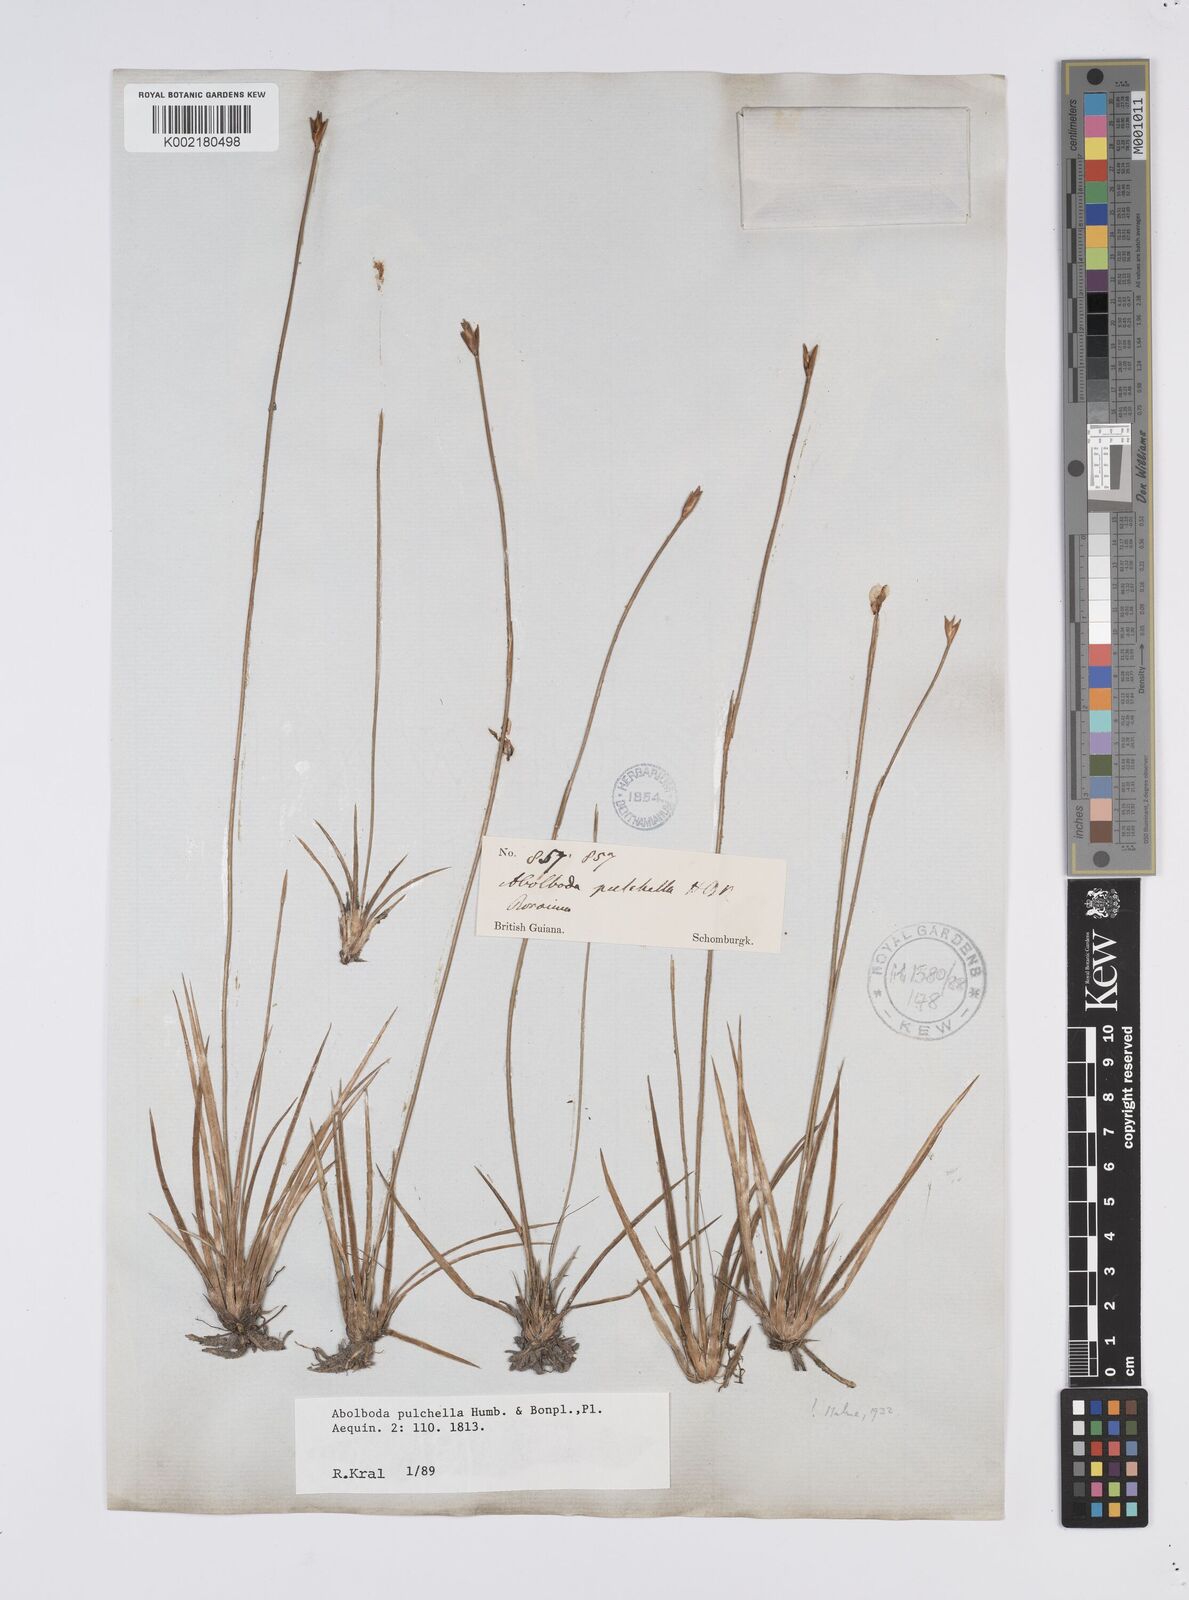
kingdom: Plantae
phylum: Tracheophyta
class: Liliopsida
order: Poales
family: Xyridaceae
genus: Abolboda
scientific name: Abolboda pulchella
